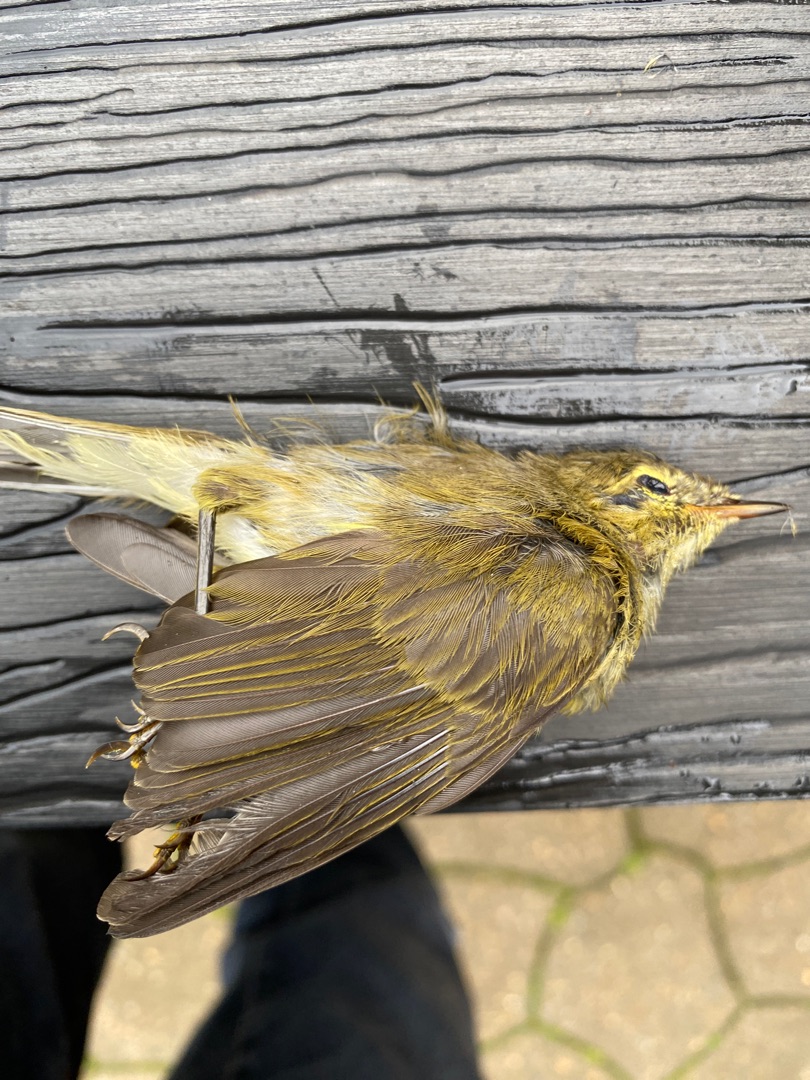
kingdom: Animalia
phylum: Chordata
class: Aves
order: Passeriformes
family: Phylloscopidae
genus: Phylloscopus
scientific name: Phylloscopus collybita
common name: Gransanger
